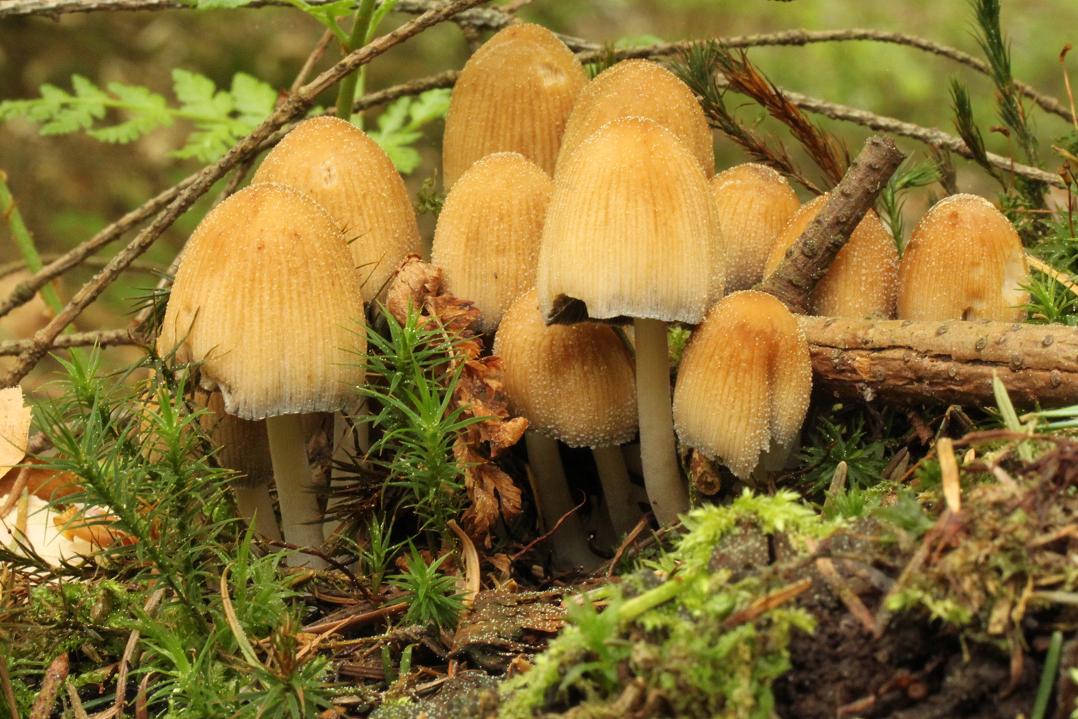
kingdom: Fungi
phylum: Basidiomycota
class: Agaricomycetes
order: Agaricales
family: Psathyrellaceae
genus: Coprinellus
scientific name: Coprinellus micaceus
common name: glimmer-blækhat
